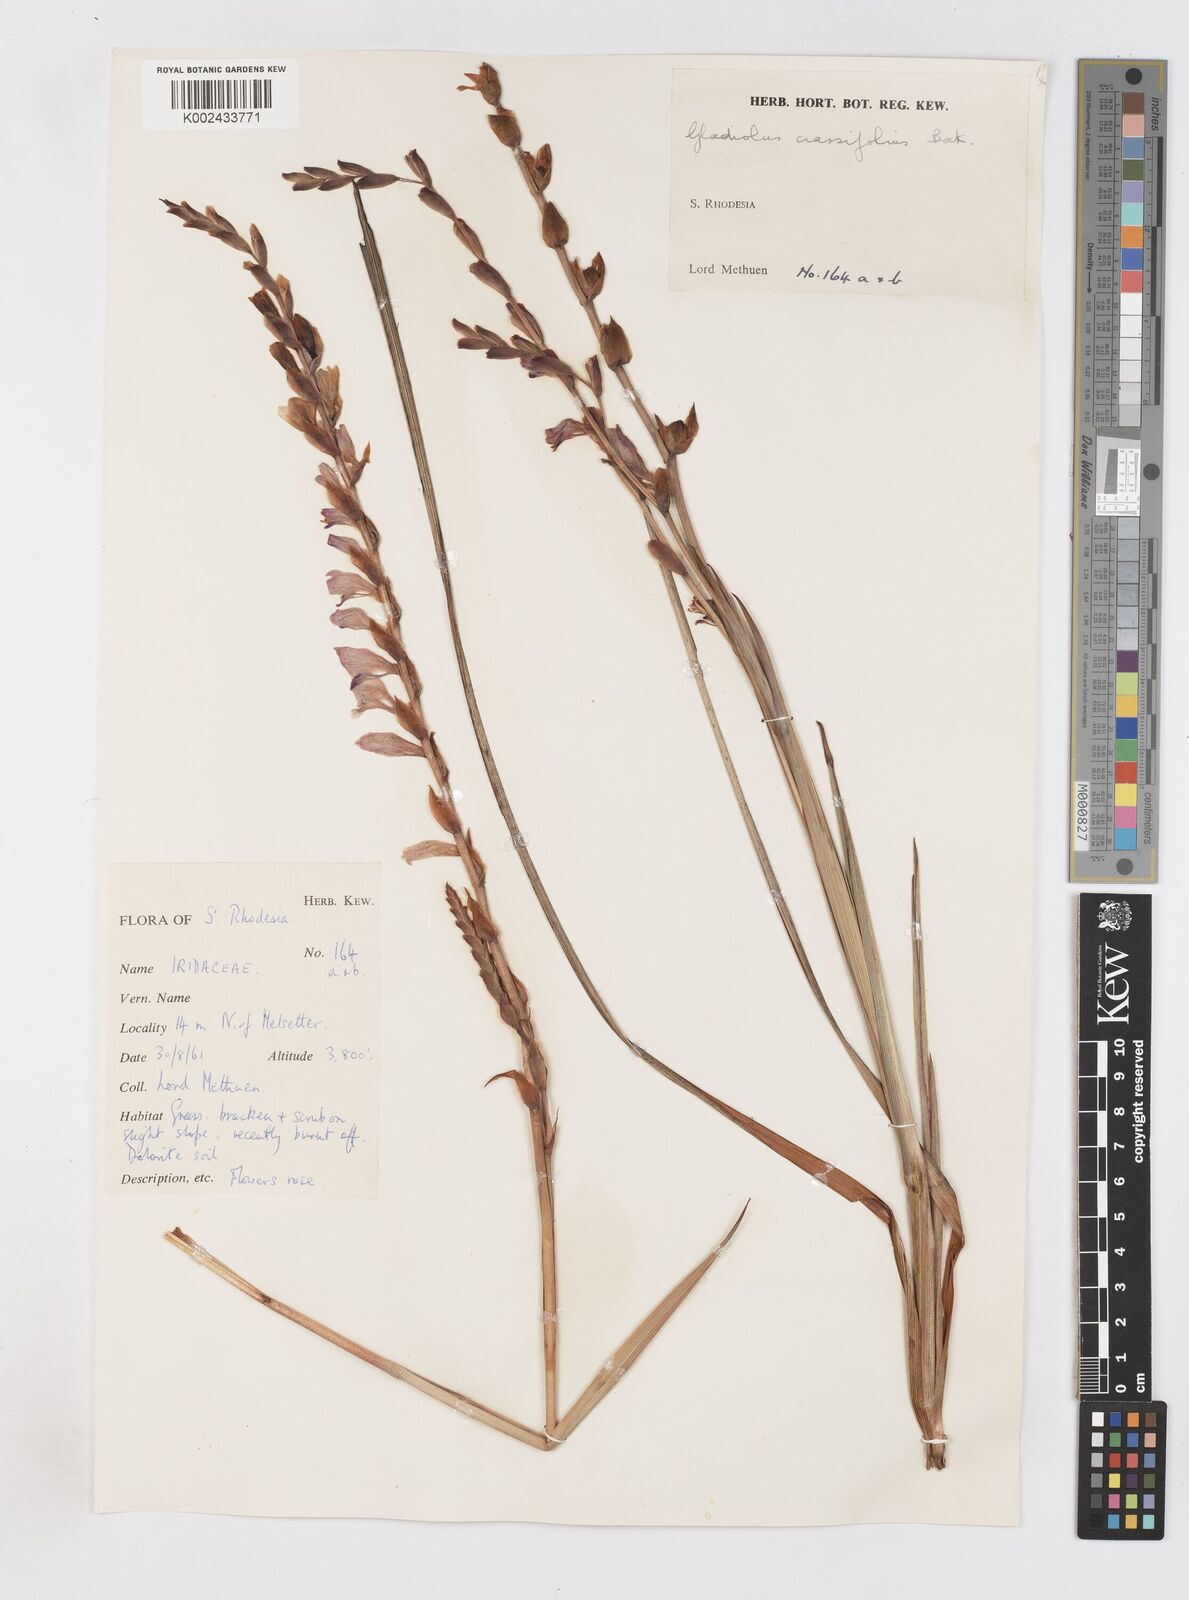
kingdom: Plantae
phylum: Tracheophyta
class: Liliopsida
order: Asparagales
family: Iridaceae
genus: Gladiolus
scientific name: Gladiolus crassifolius
